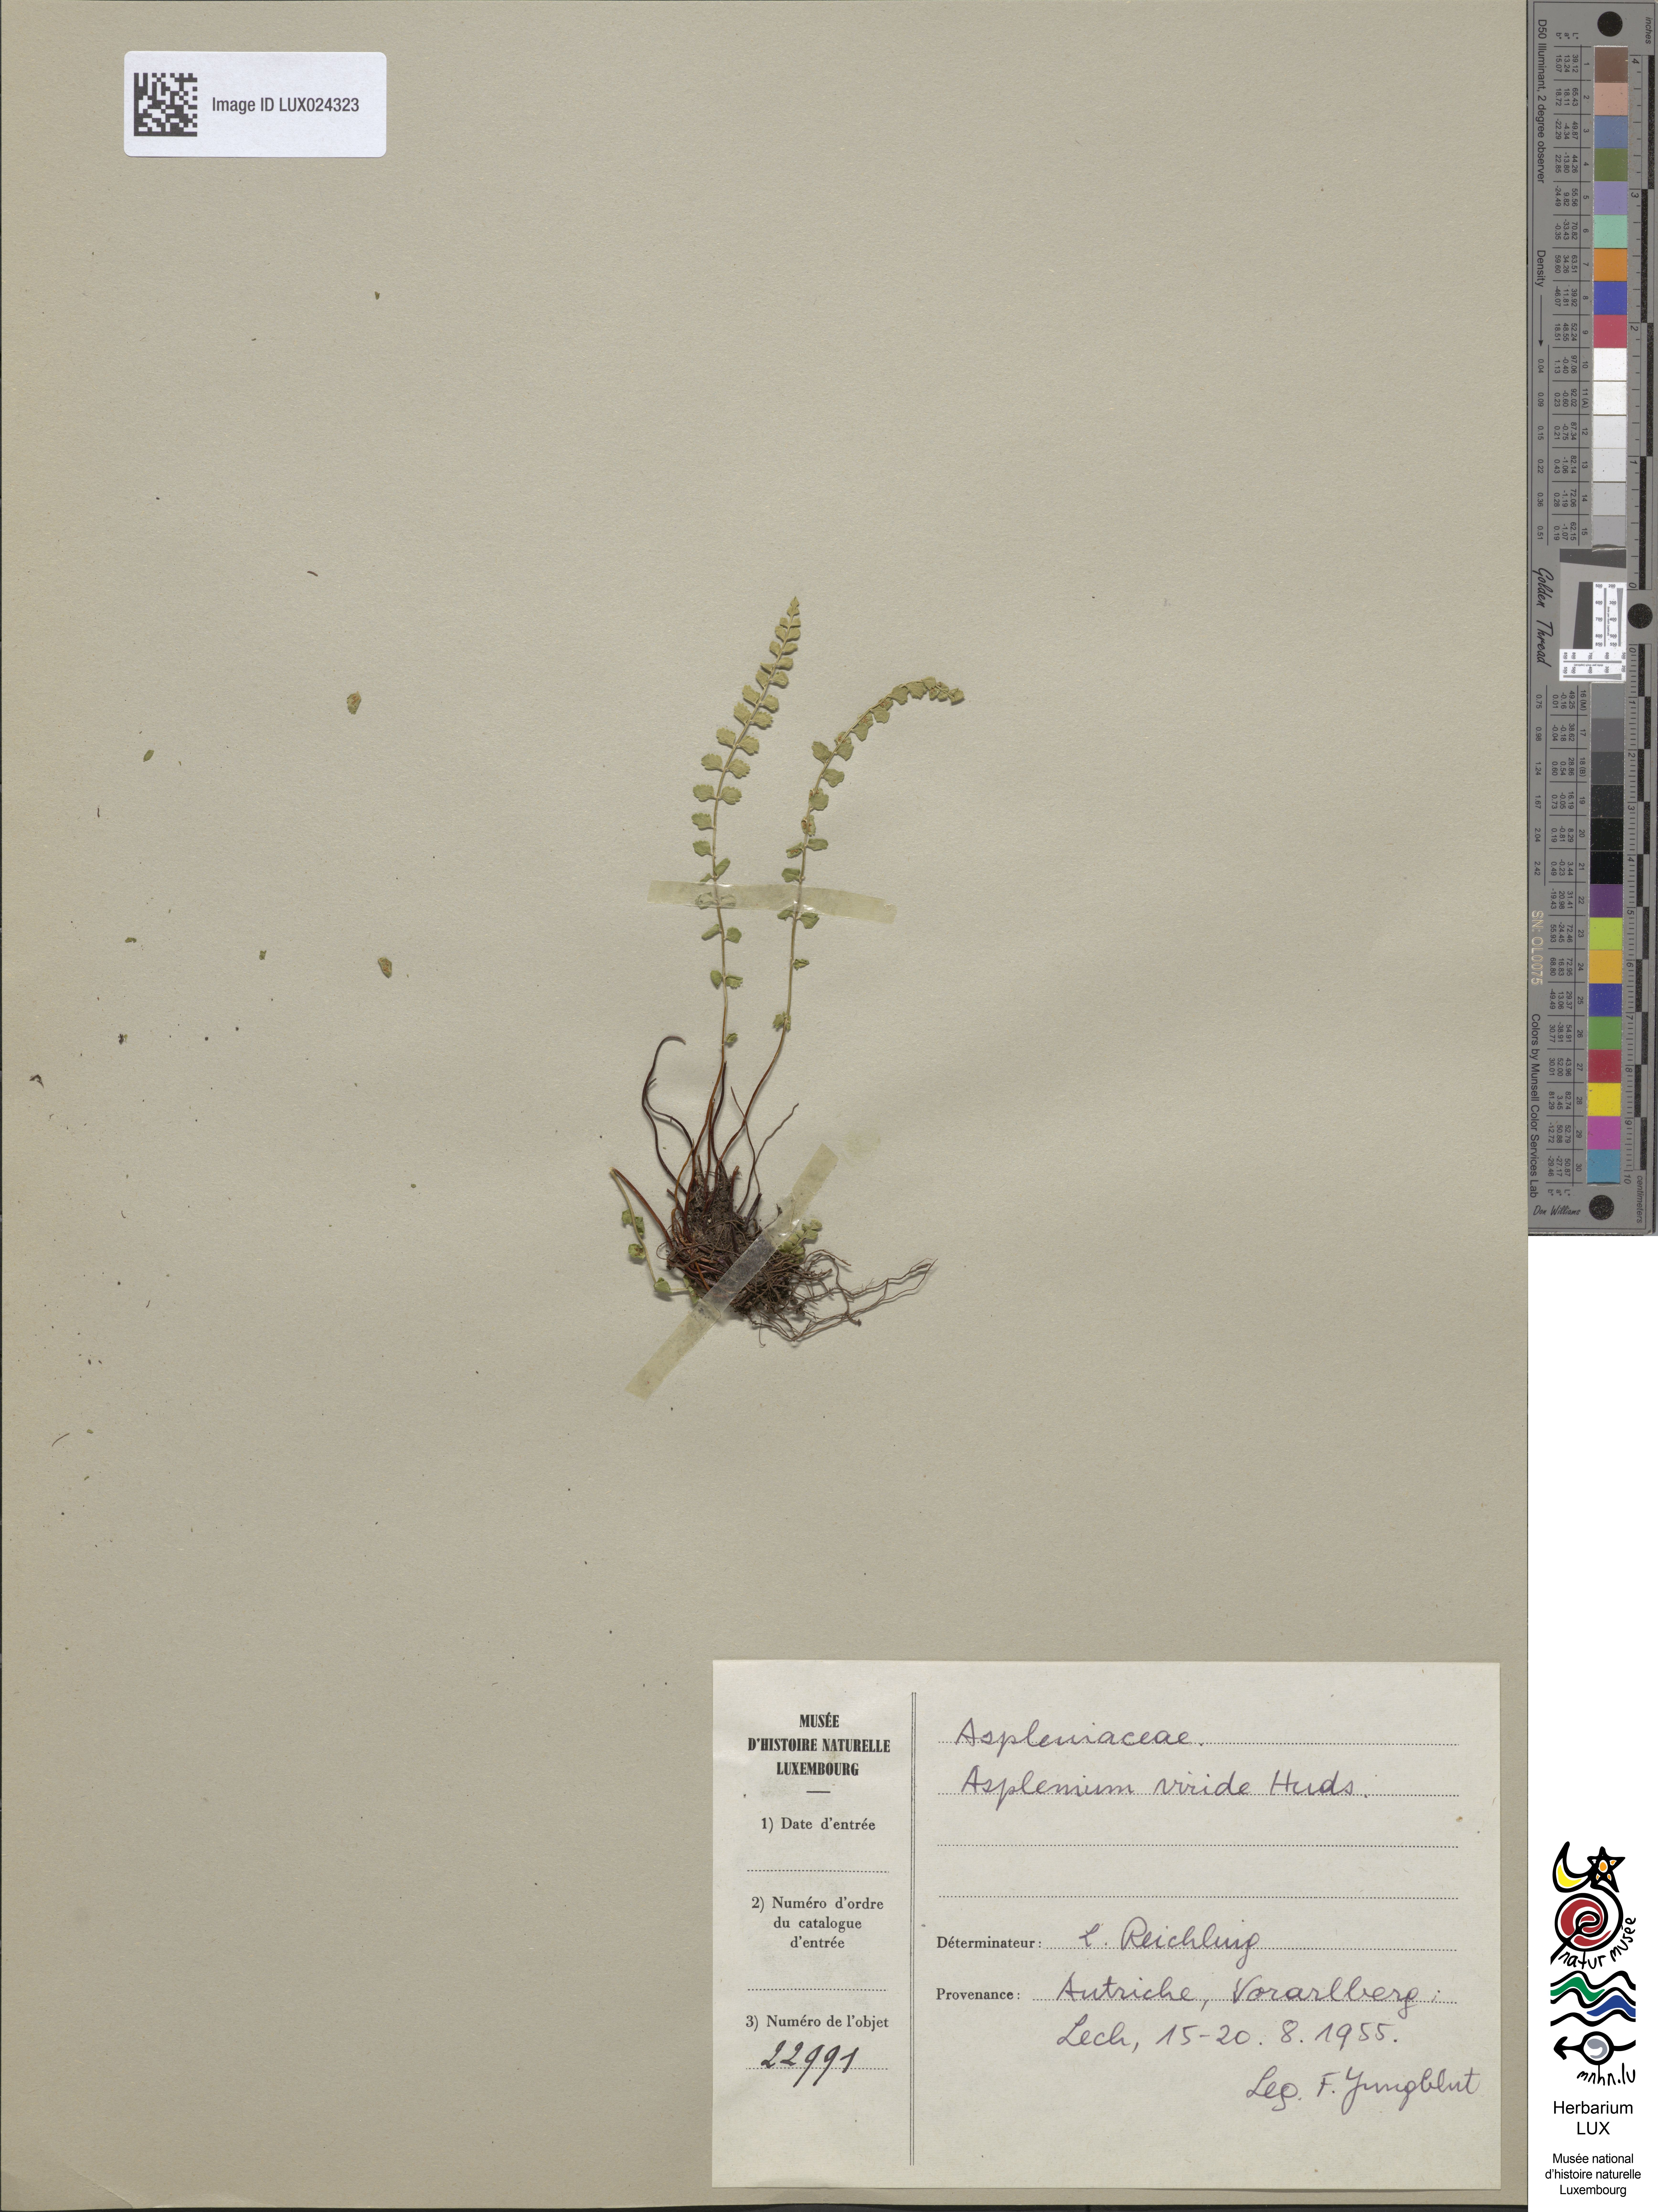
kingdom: Plantae
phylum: Tracheophyta
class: Polypodiopsida
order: Polypodiales
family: Aspleniaceae
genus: Asplenium
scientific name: Asplenium viride
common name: Green spleenwort
